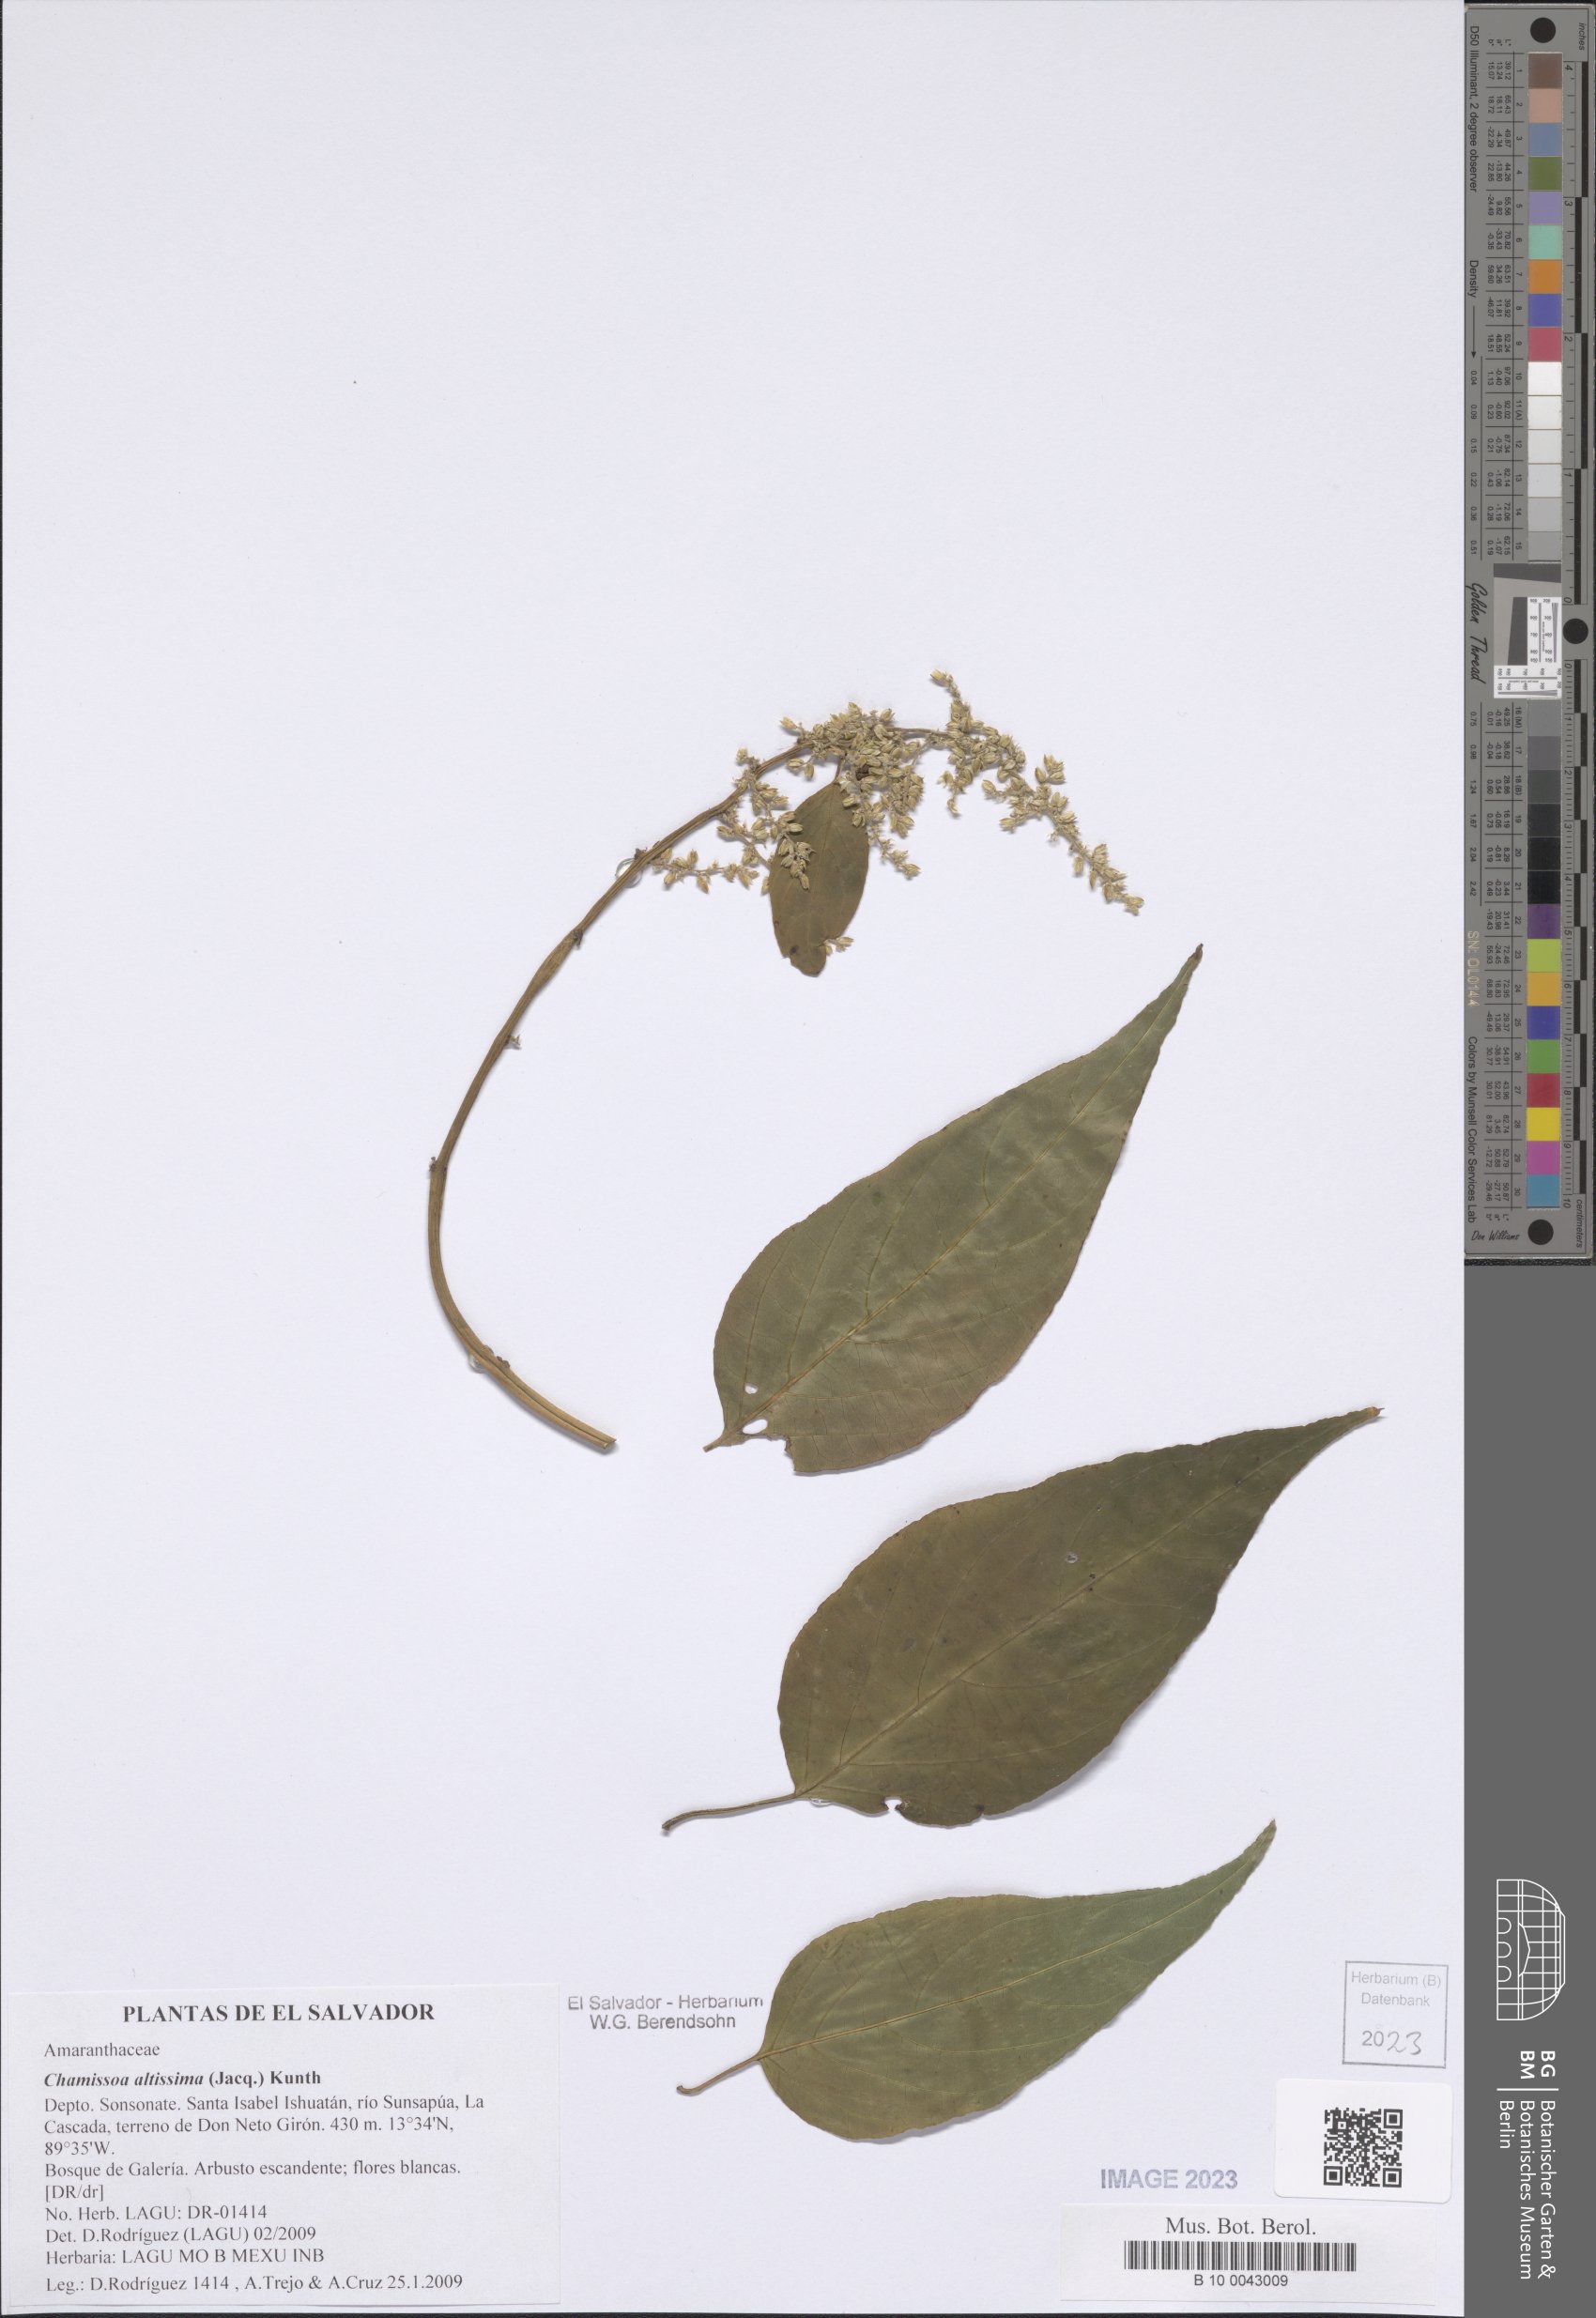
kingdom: Plantae
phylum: Tracheophyta
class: Magnoliopsida
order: Caryophyllales
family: Amaranthaceae
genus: Chamissoa
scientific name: Chamissoa altissima
